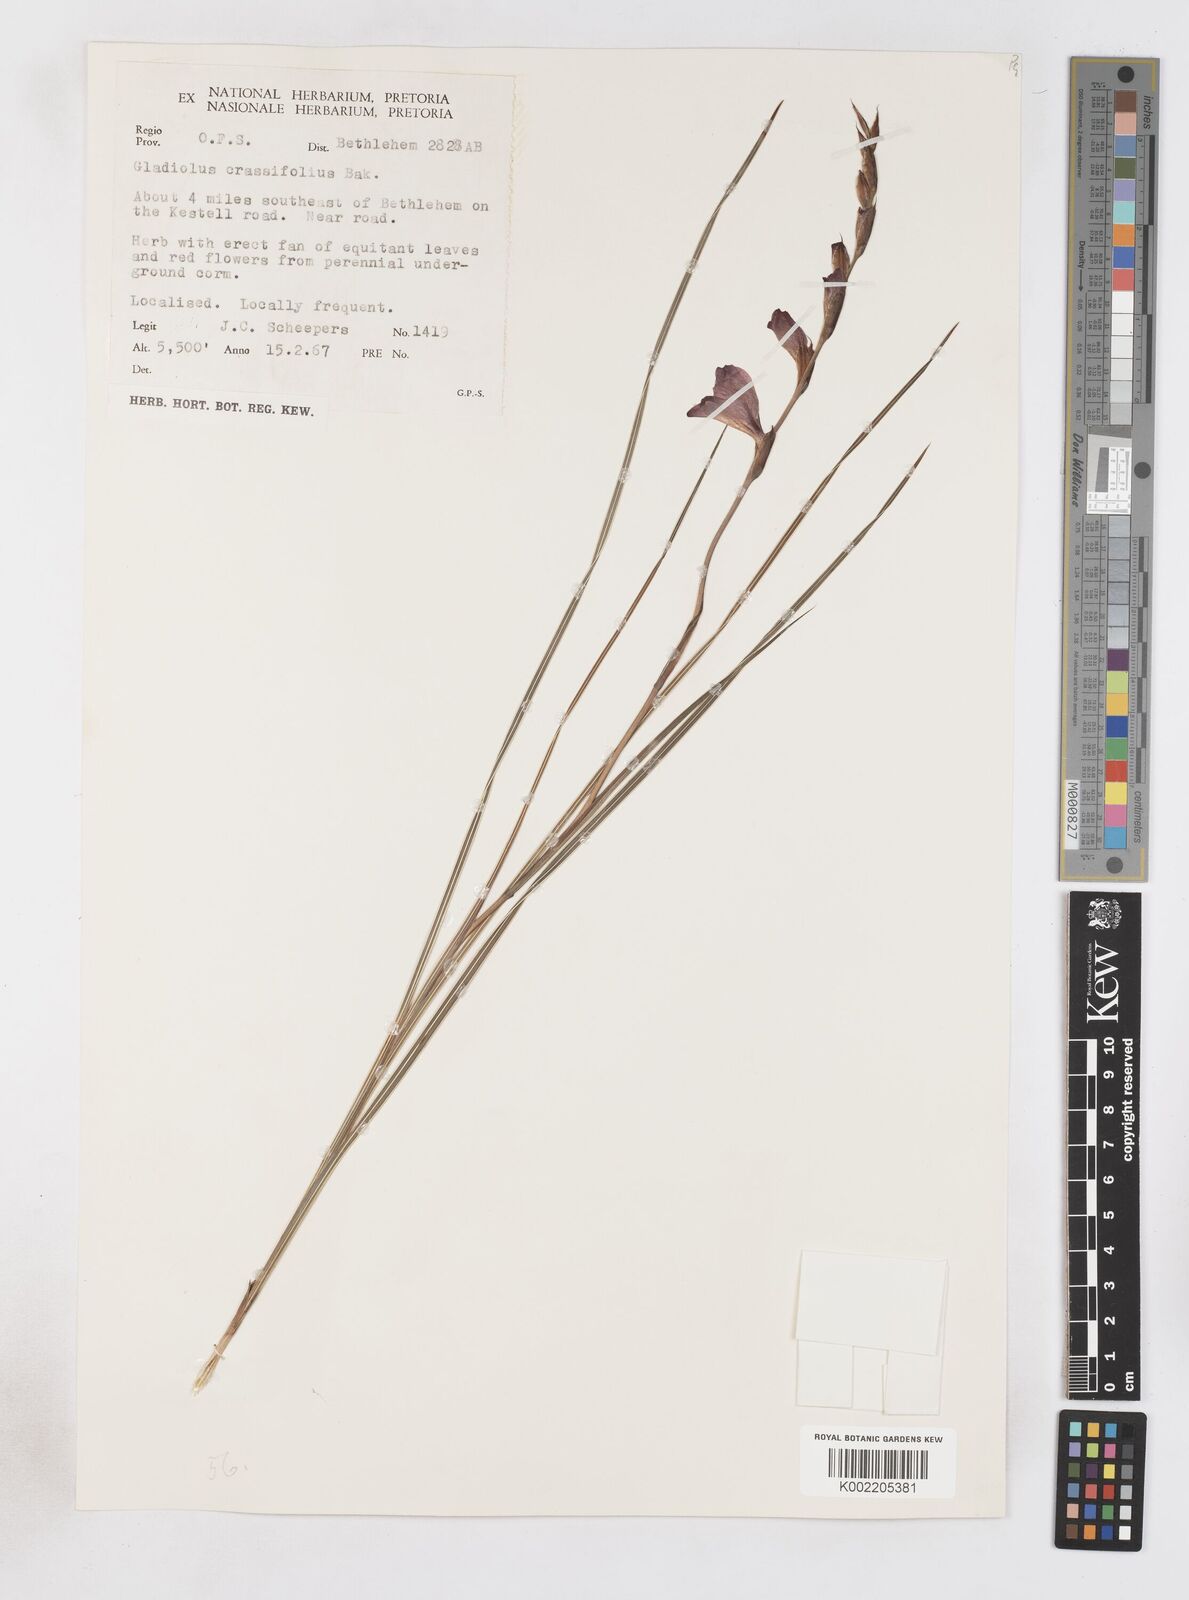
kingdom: Plantae
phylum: Tracheophyta
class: Liliopsida
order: Asparagales
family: Iridaceae
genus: Gladiolus
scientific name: Gladiolus crassifolius
